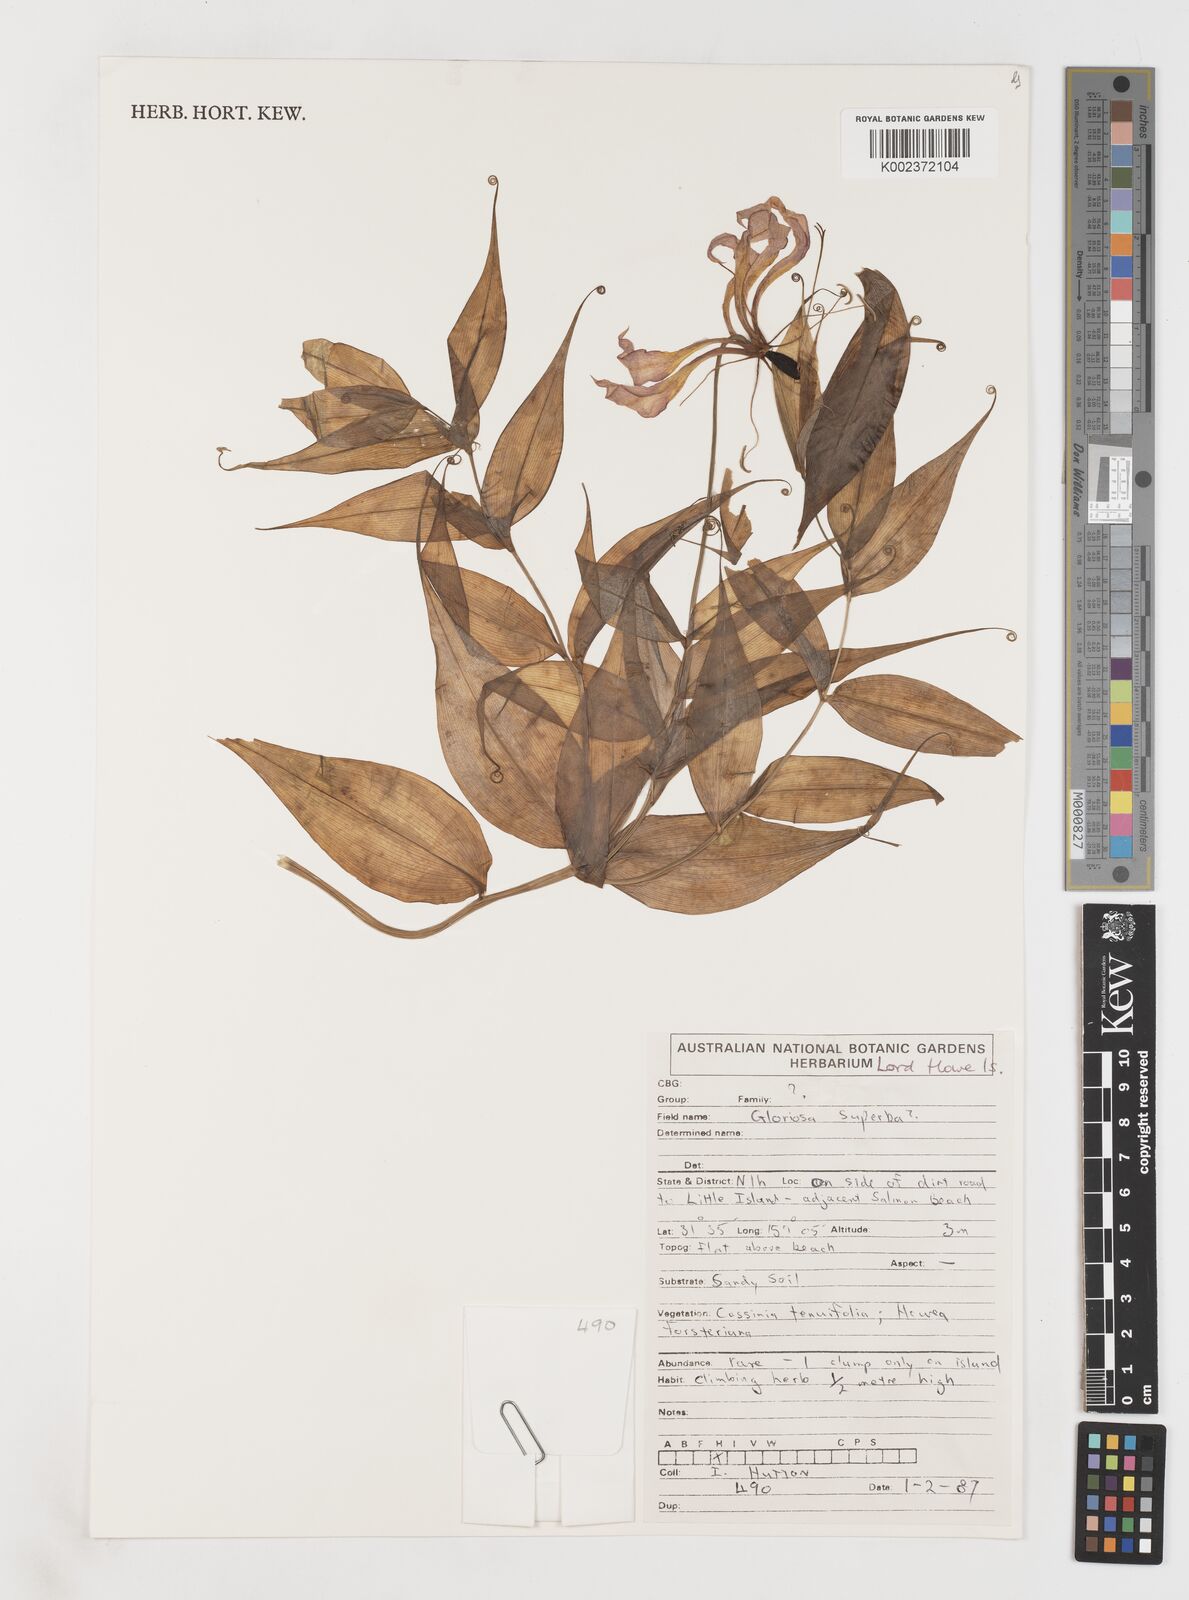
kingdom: Plantae
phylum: Tracheophyta
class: Liliopsida
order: Liliales
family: Colchicaceae
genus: Gloriosa
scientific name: Gloriosa simplex
